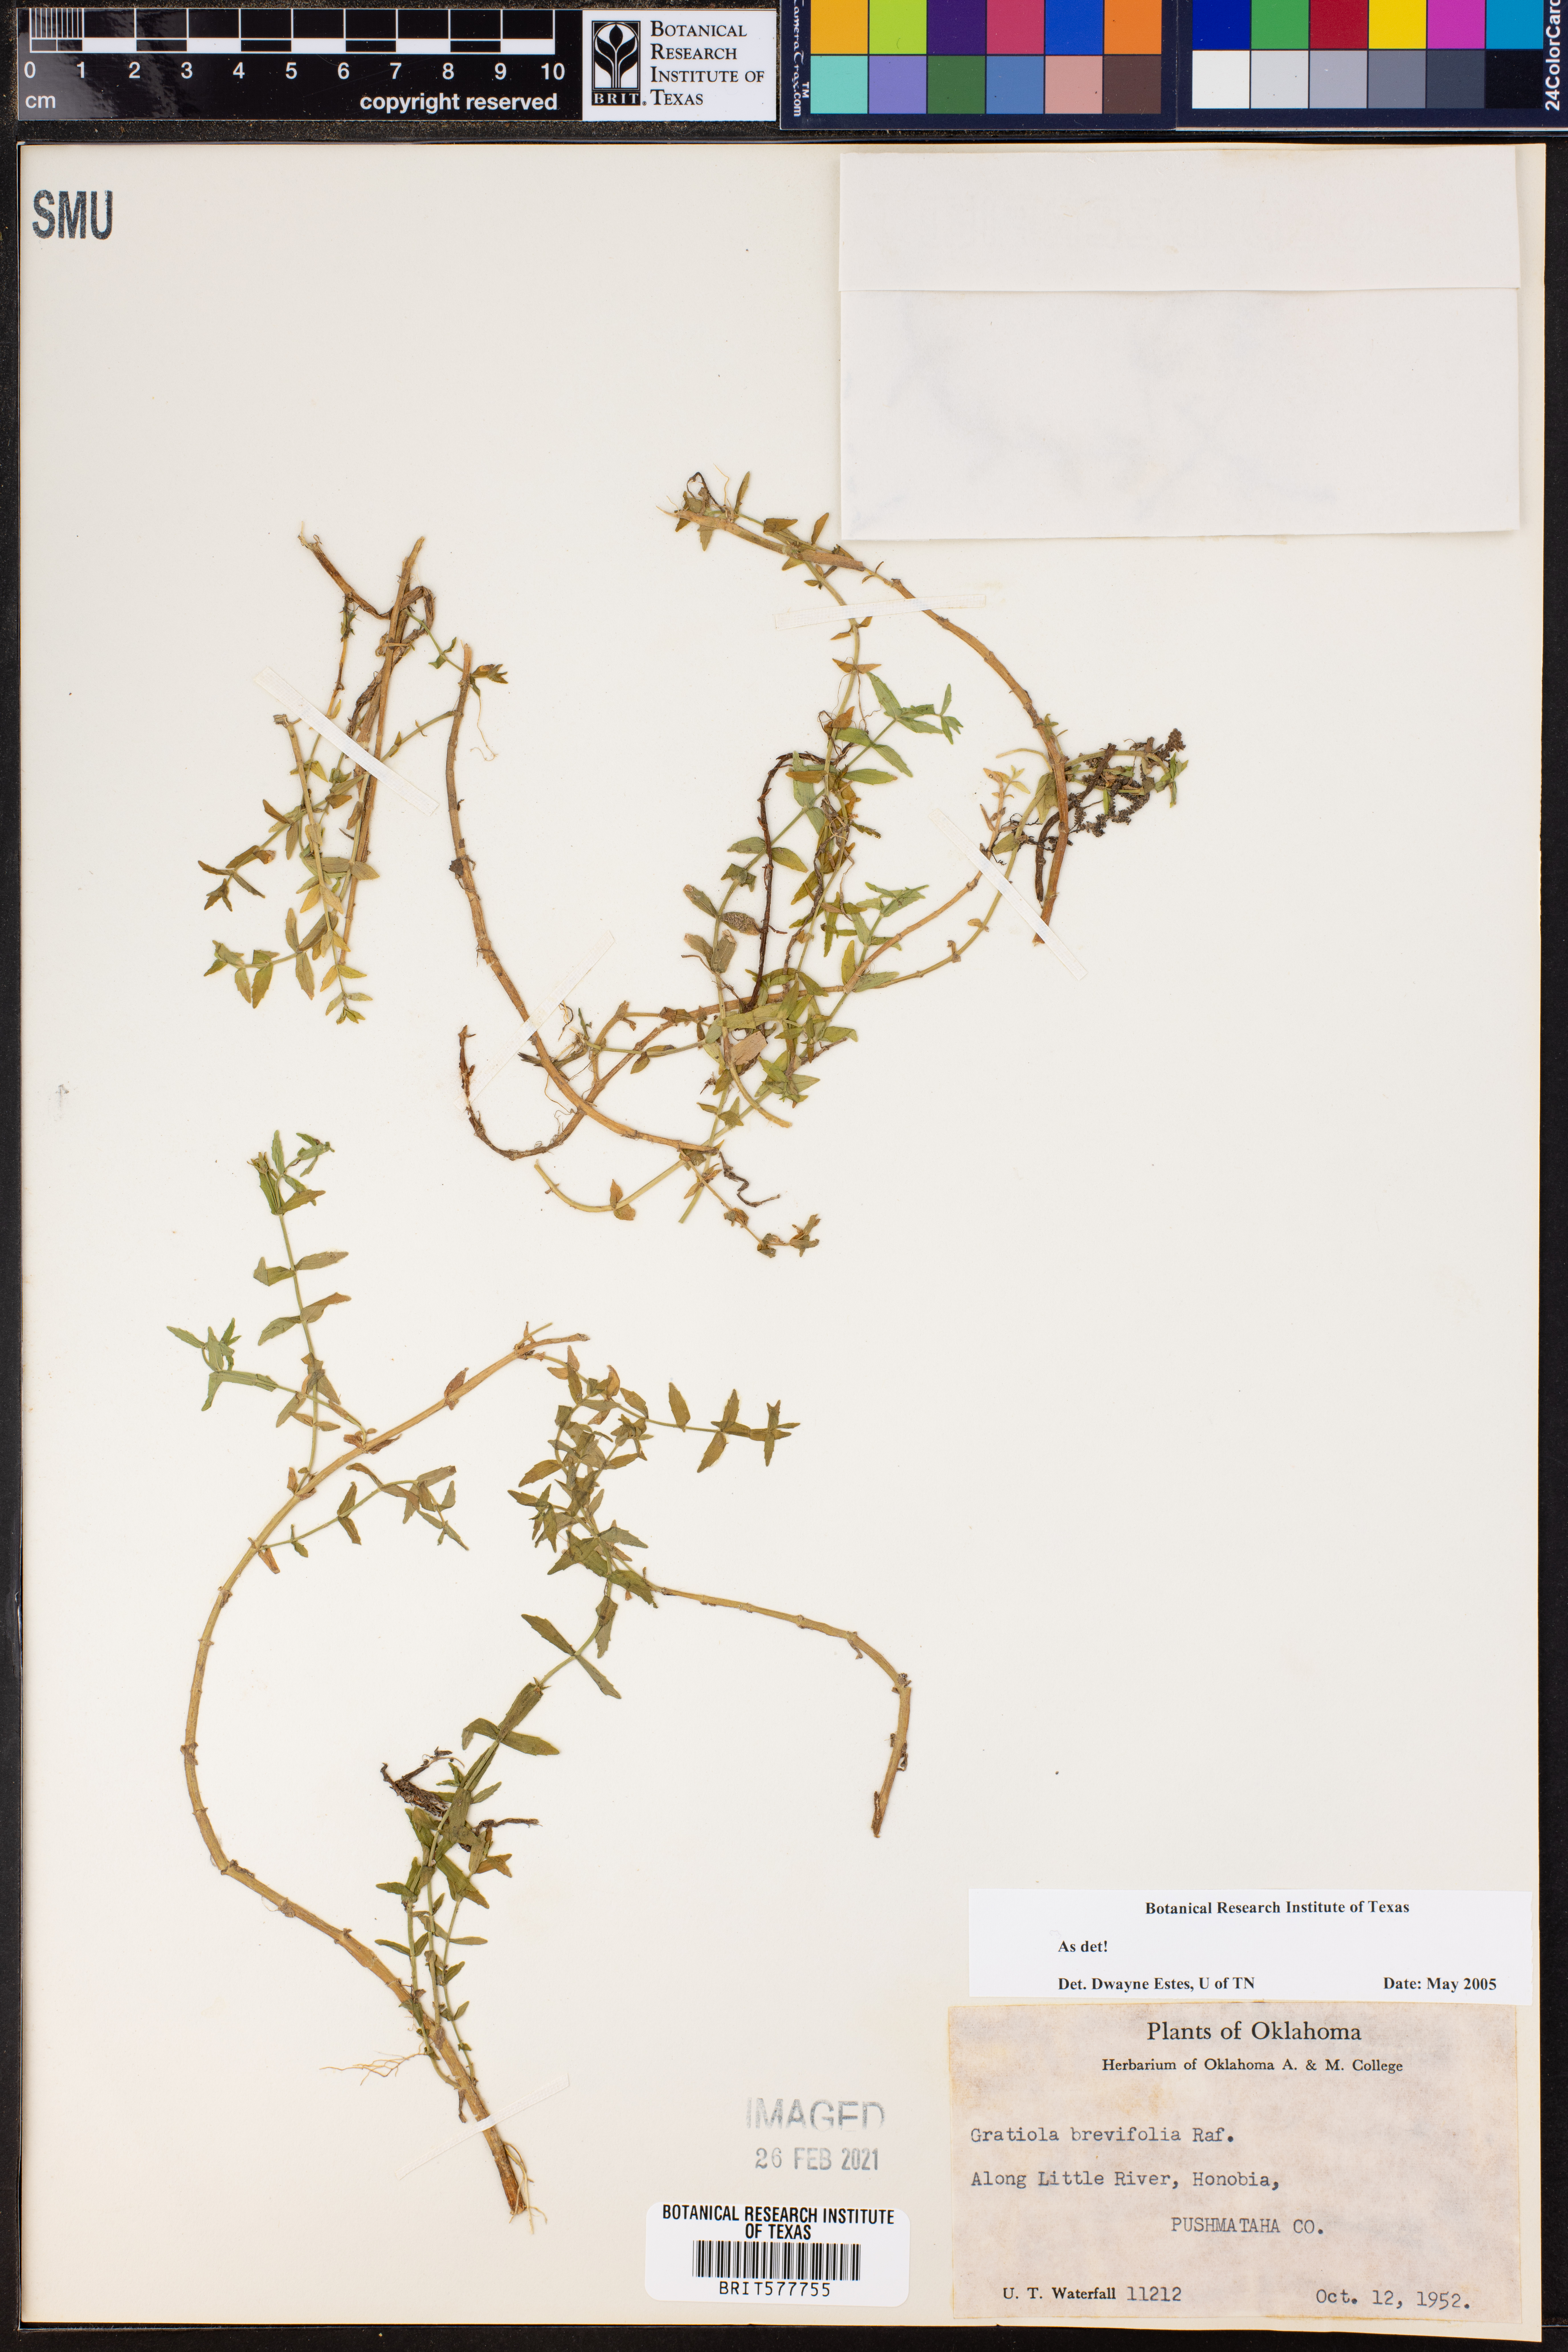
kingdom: Plantae
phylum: Tracheophyta
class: Magnoliopsida
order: Lamiales
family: Plantaginaceae
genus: Gratiola
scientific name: Gratiola brevifolia
